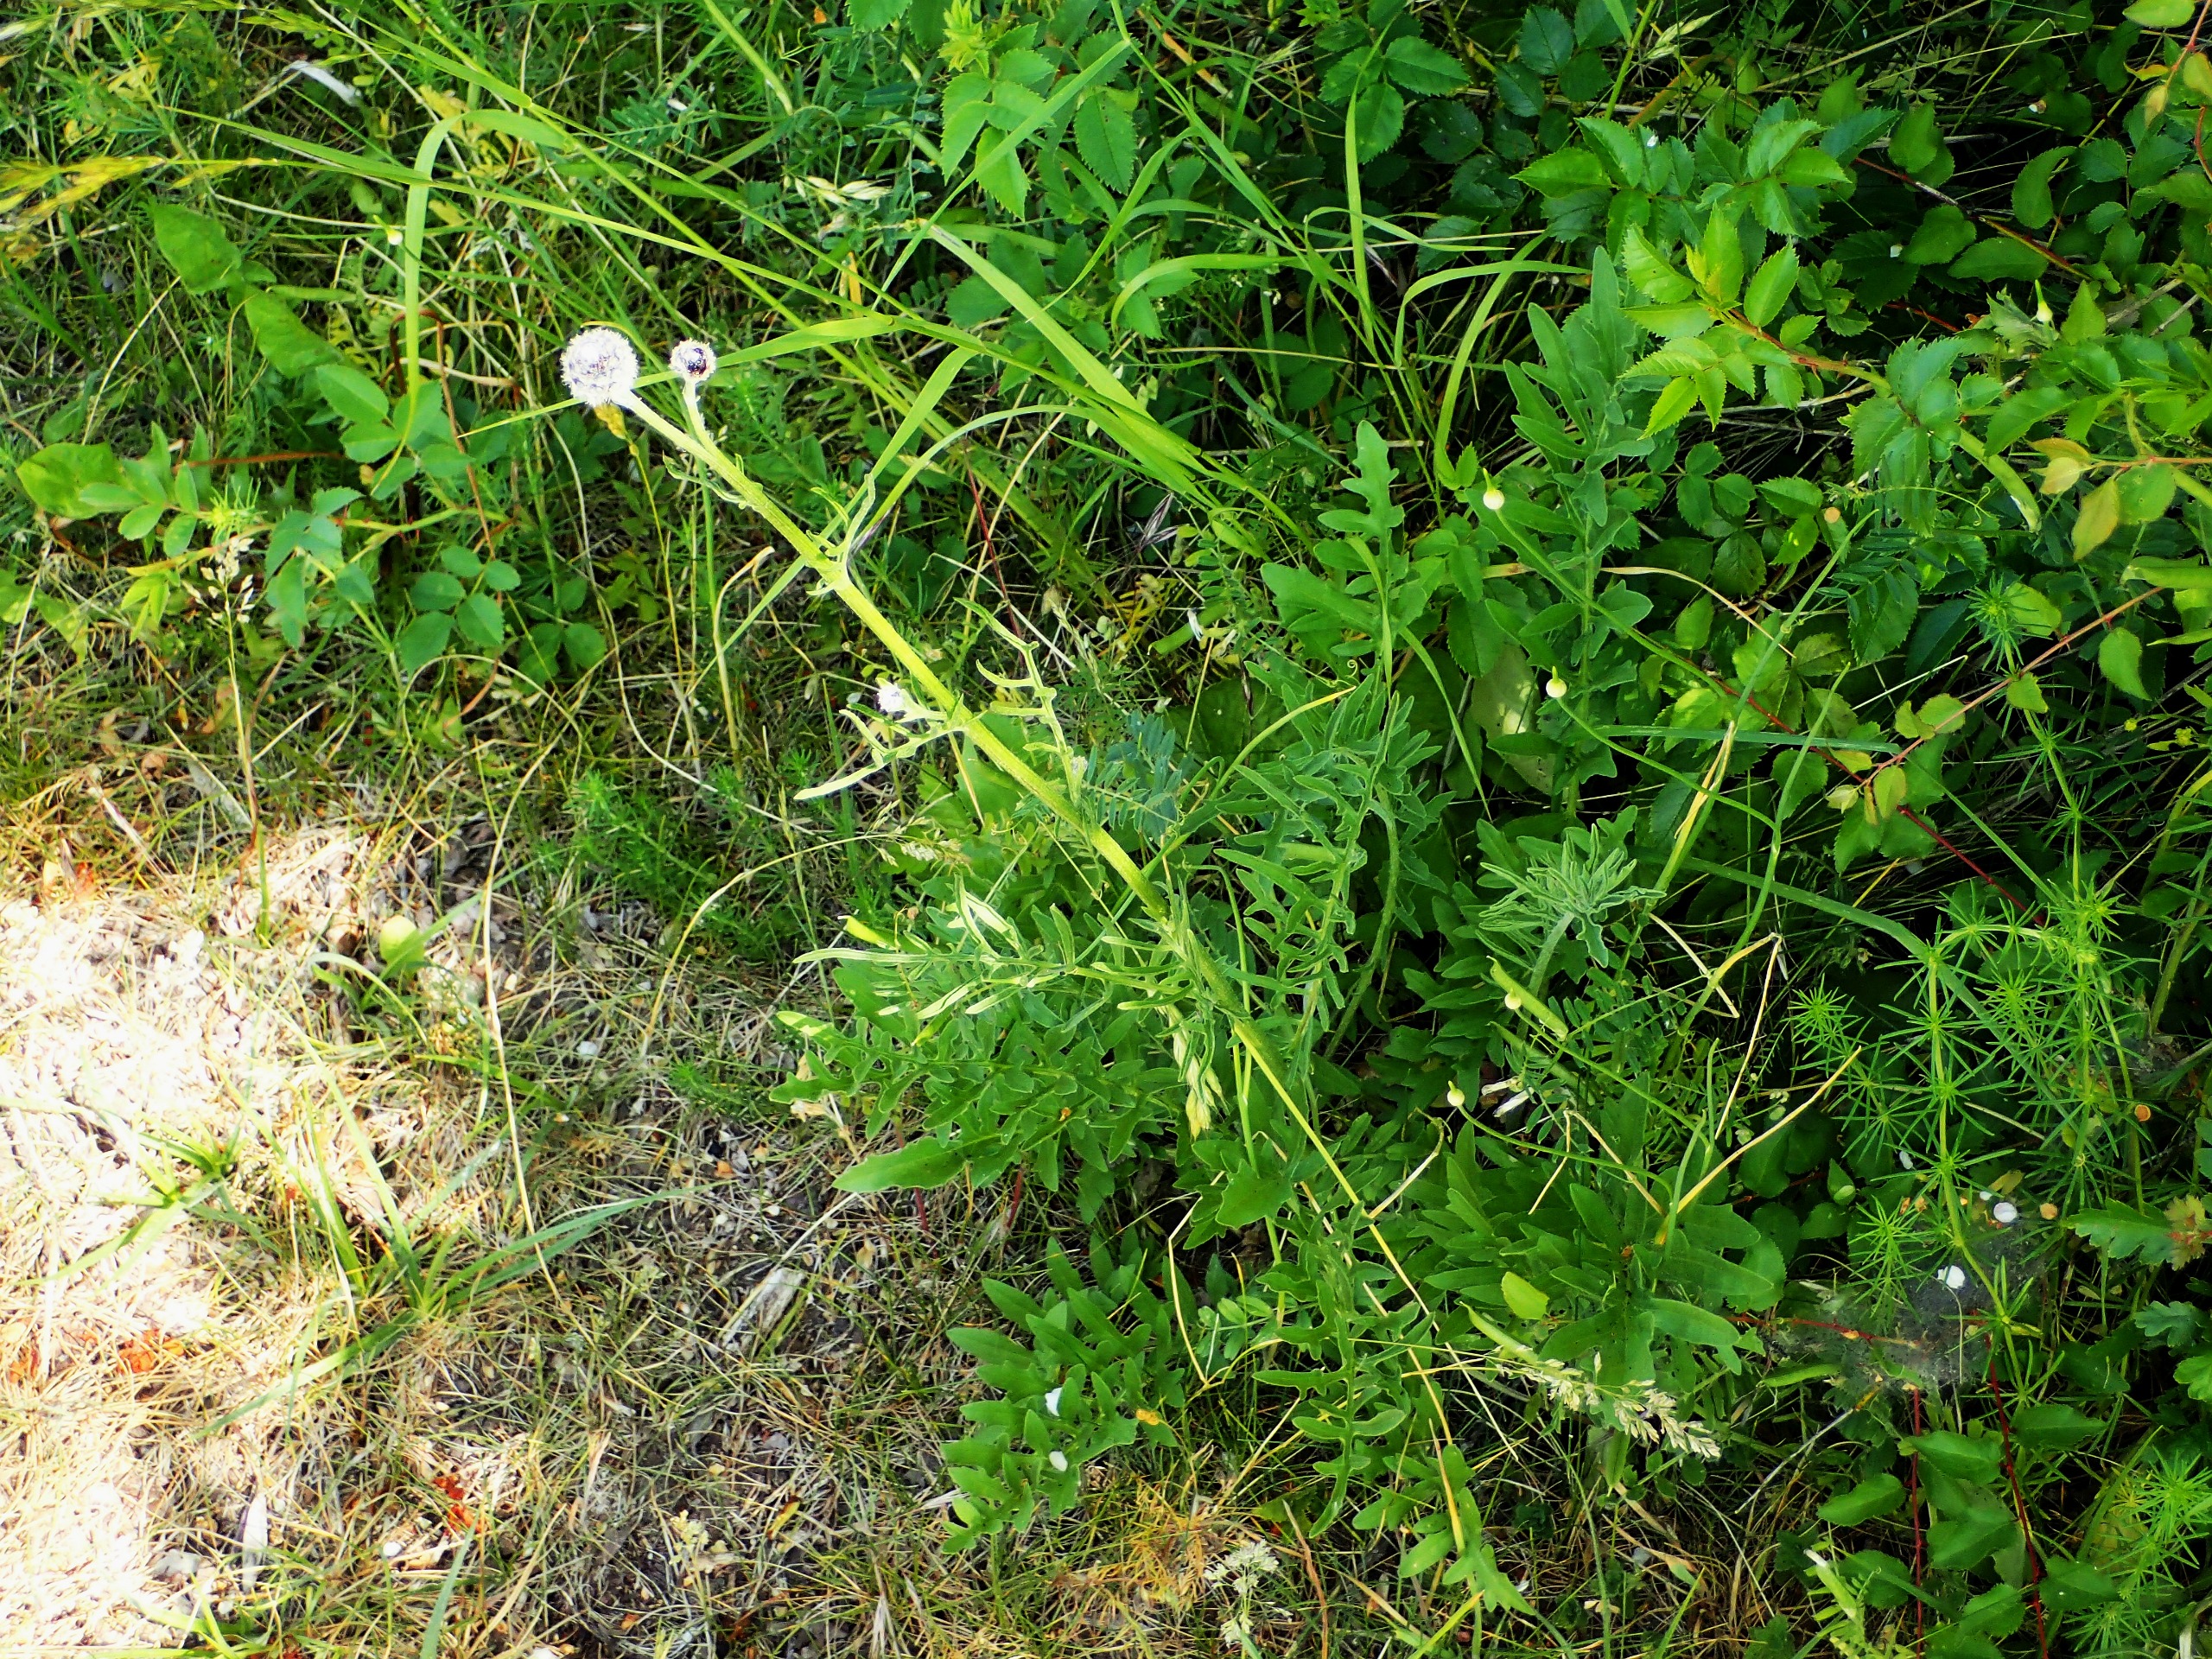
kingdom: Plantae
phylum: Tracheophyta
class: Magnoliopsida
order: Asterales
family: Asteraceae
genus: Centaurea
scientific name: Centaurea scabiosa
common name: Stor knopurt
